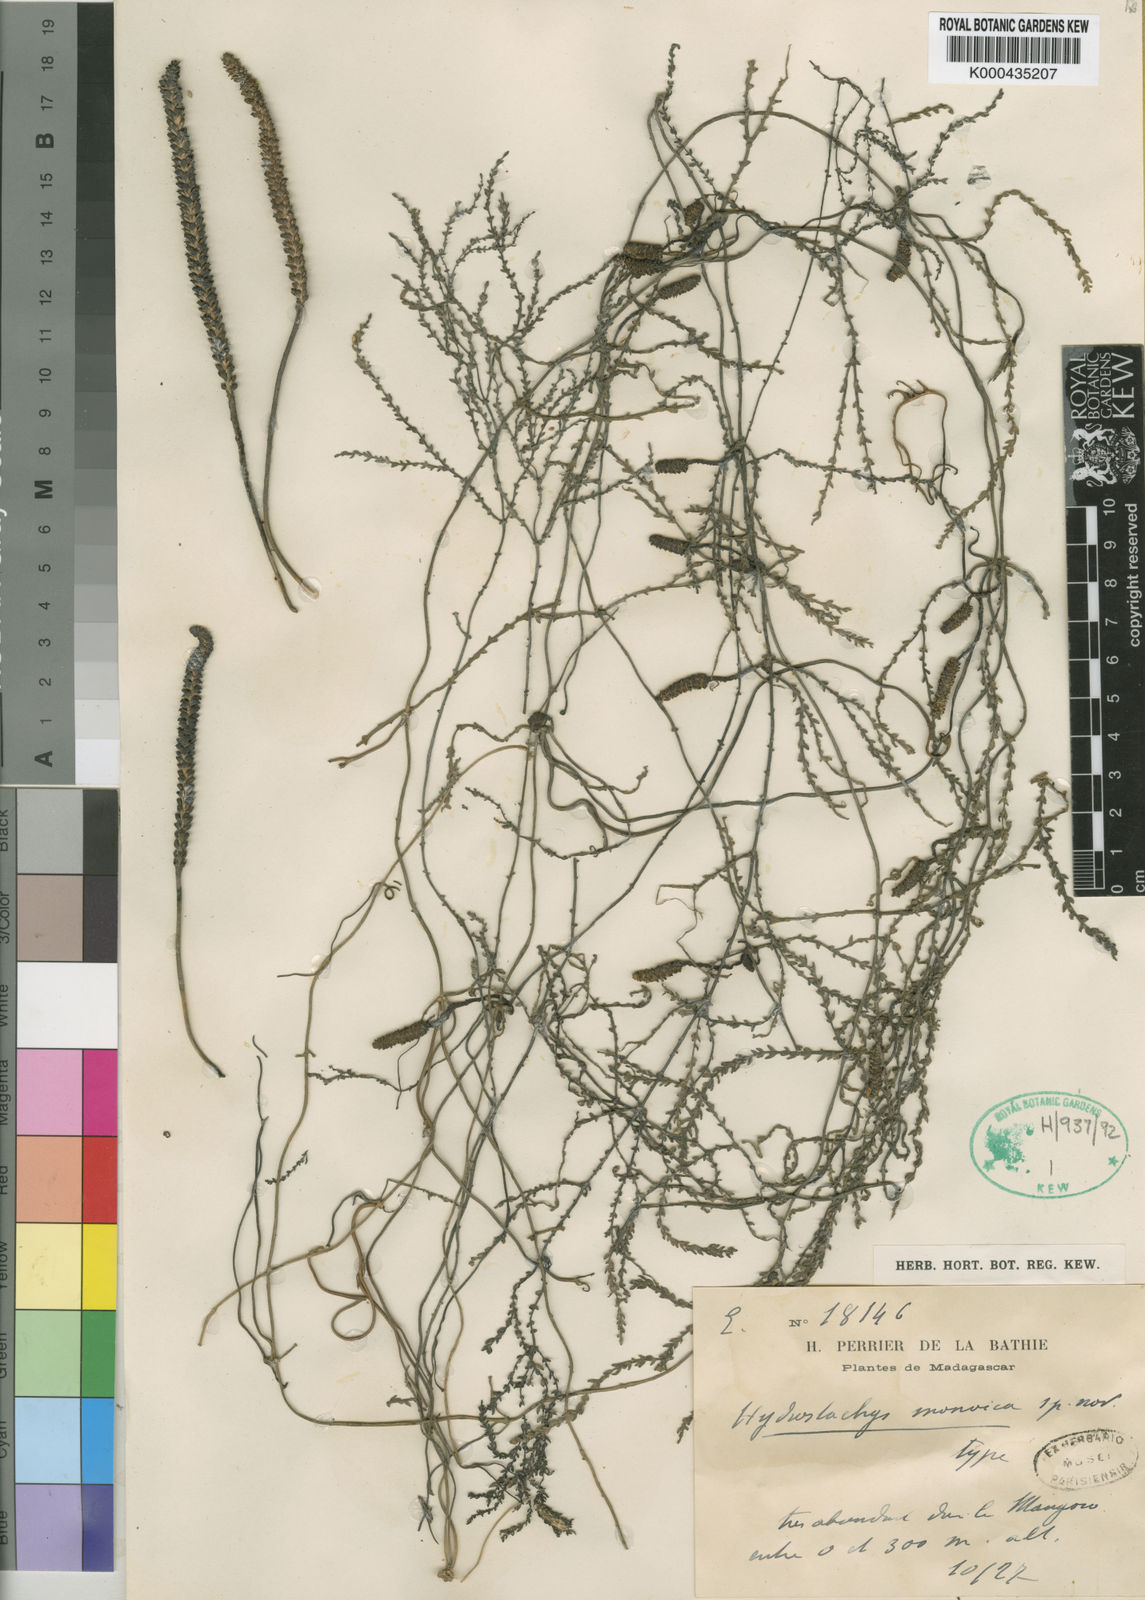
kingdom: Plantae
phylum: Tracheophyta
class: Magnoliopsida
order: Cornales
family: Hydrostachyaceae
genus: Hydrostachys
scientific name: Hydrostachys monoicus
